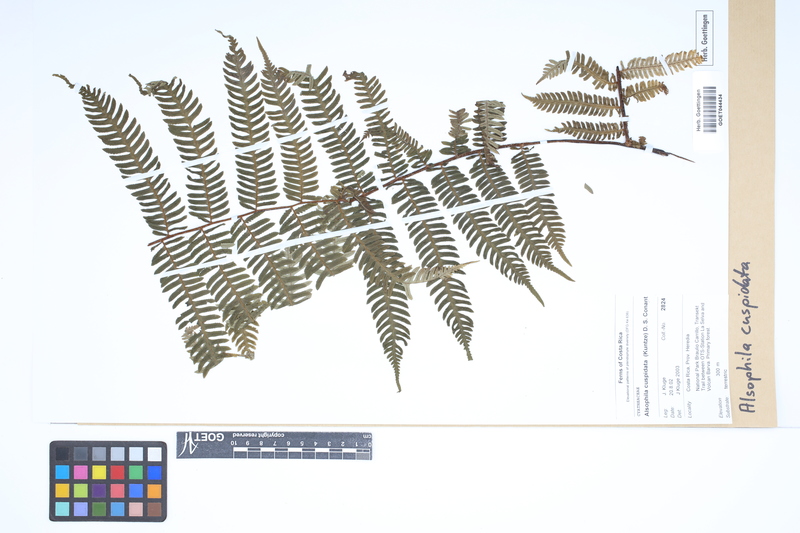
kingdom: Plantae
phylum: Tracheophyta
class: Polypodiopsida
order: Cyatheales
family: Cyatheaceae
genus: Alsophila
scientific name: Alsophila cuspidata
